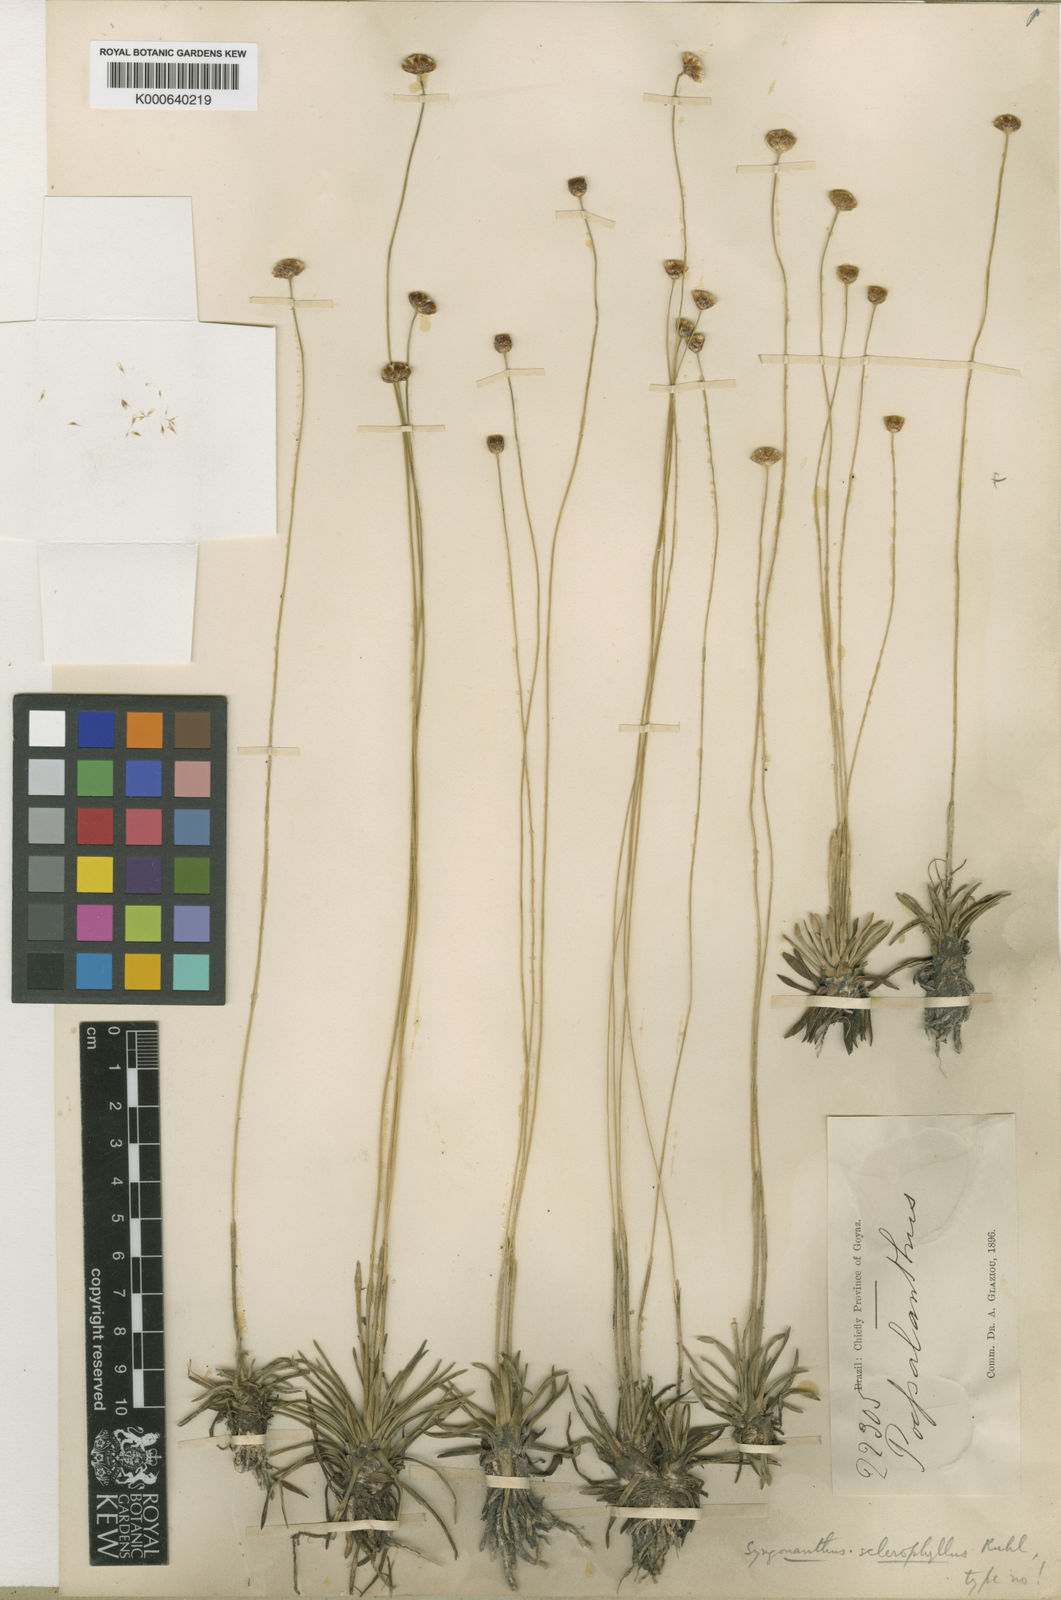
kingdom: Plantae
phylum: Tracheophyta
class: Liliopsida
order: Poales
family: Eriocaulaceae
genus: Syngonanthus
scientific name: Syngonanthus sclerophyllus
